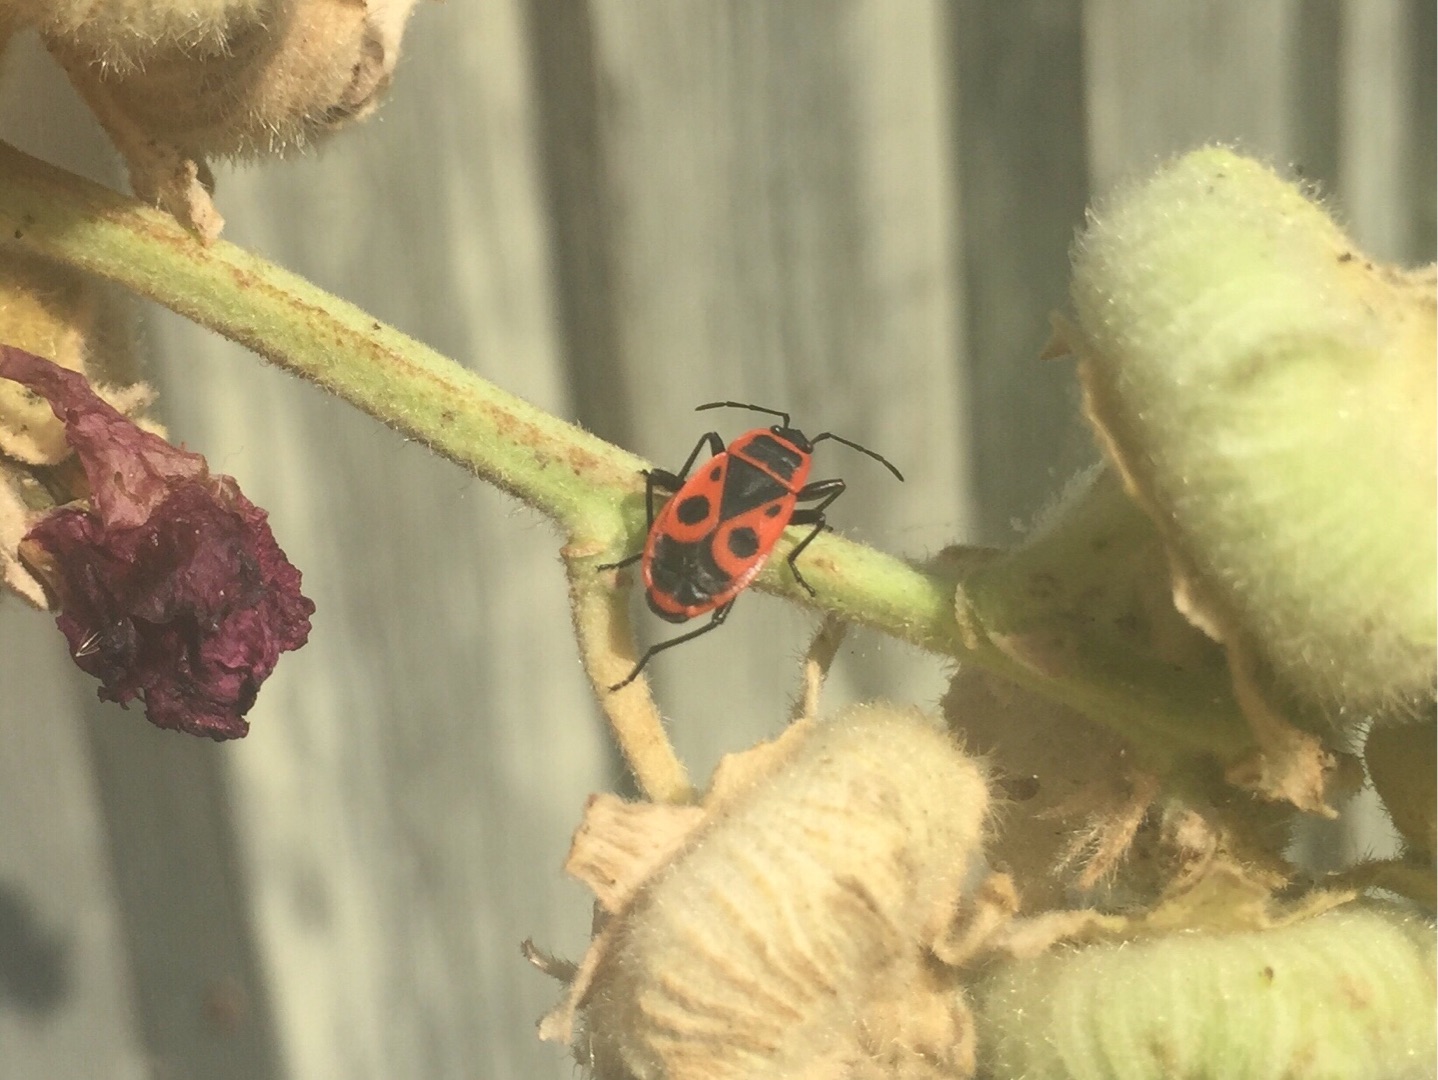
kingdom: Animalia
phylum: Arthropoda
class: Insecta
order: Hemiptera
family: Pyrrhocoridae
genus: Pyrrhocoris
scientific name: Pyrrhocoris apterus
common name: Ildtæge
